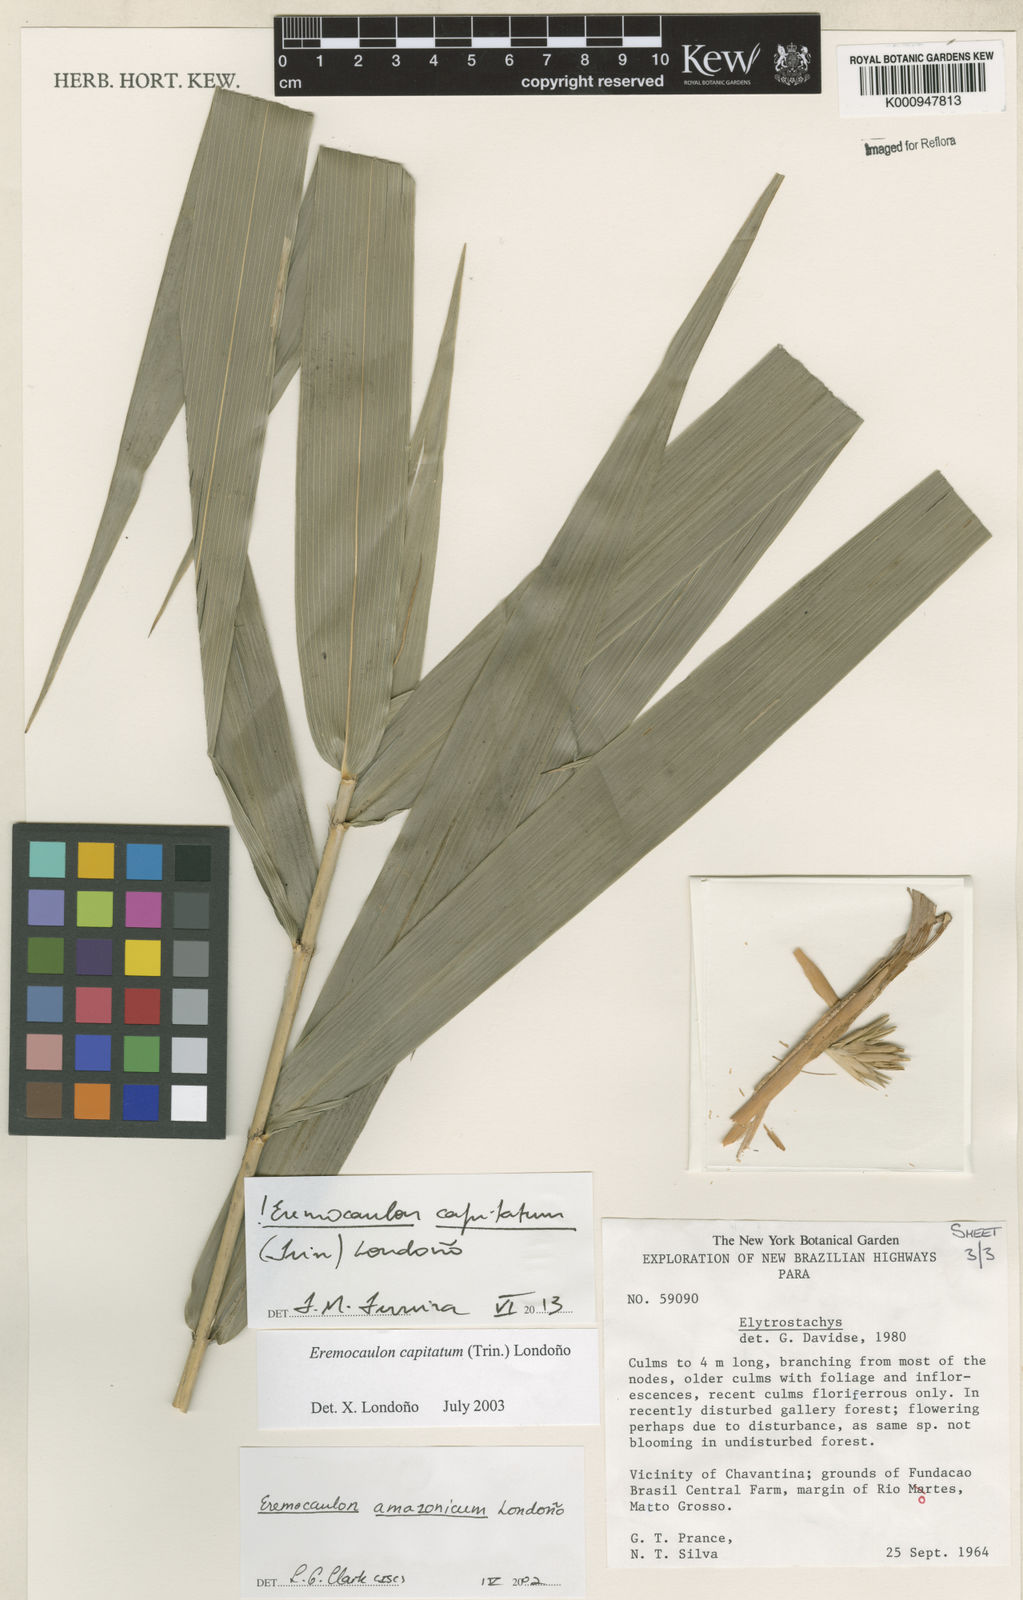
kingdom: Plantae
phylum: Tracheophyta
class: Liliopsida
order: Poales
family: Poaceae
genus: Eremocaulon
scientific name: Eremocaulon
